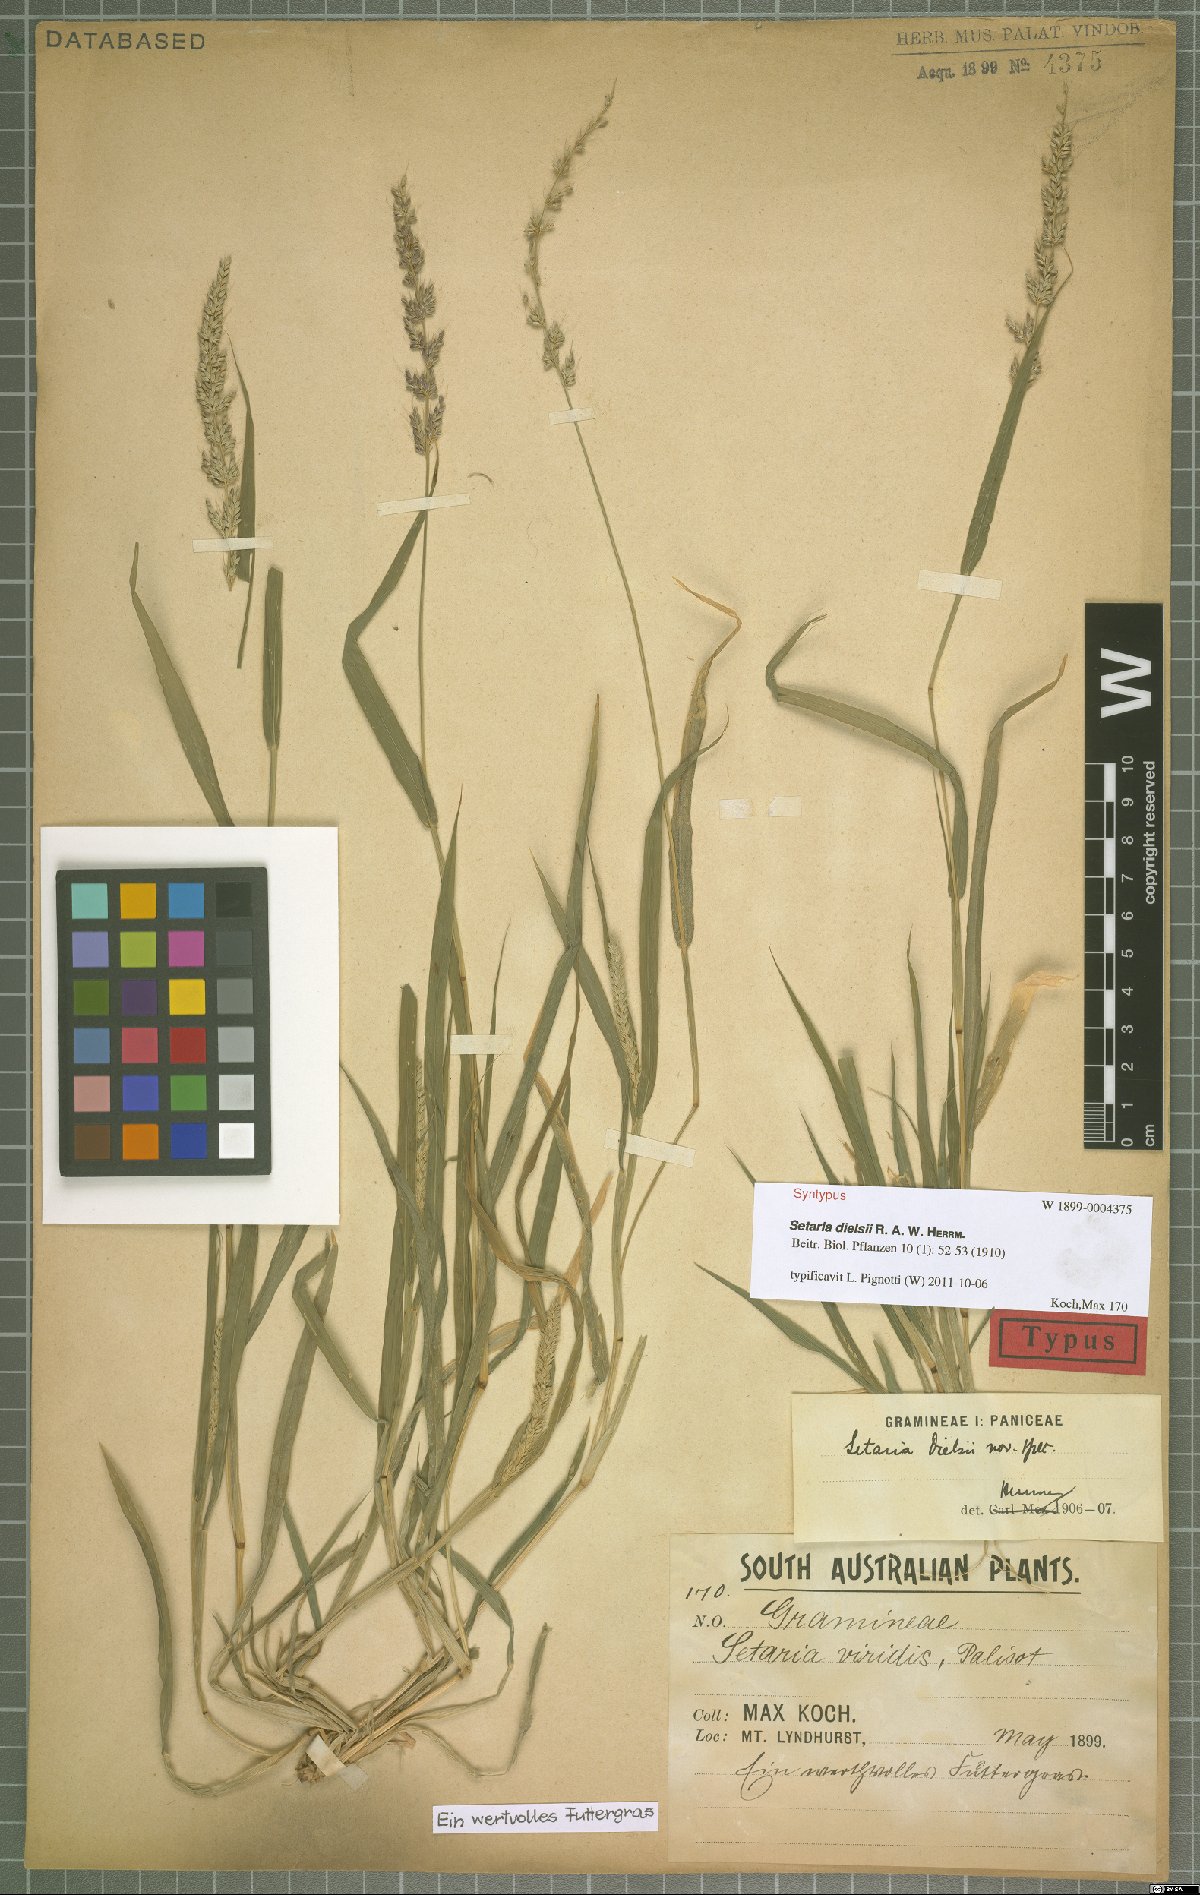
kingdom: Plantae
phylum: Tracheophyta
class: Liliopsida
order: Poales
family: Poaceae
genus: Setaria
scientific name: Setaria dielsii
